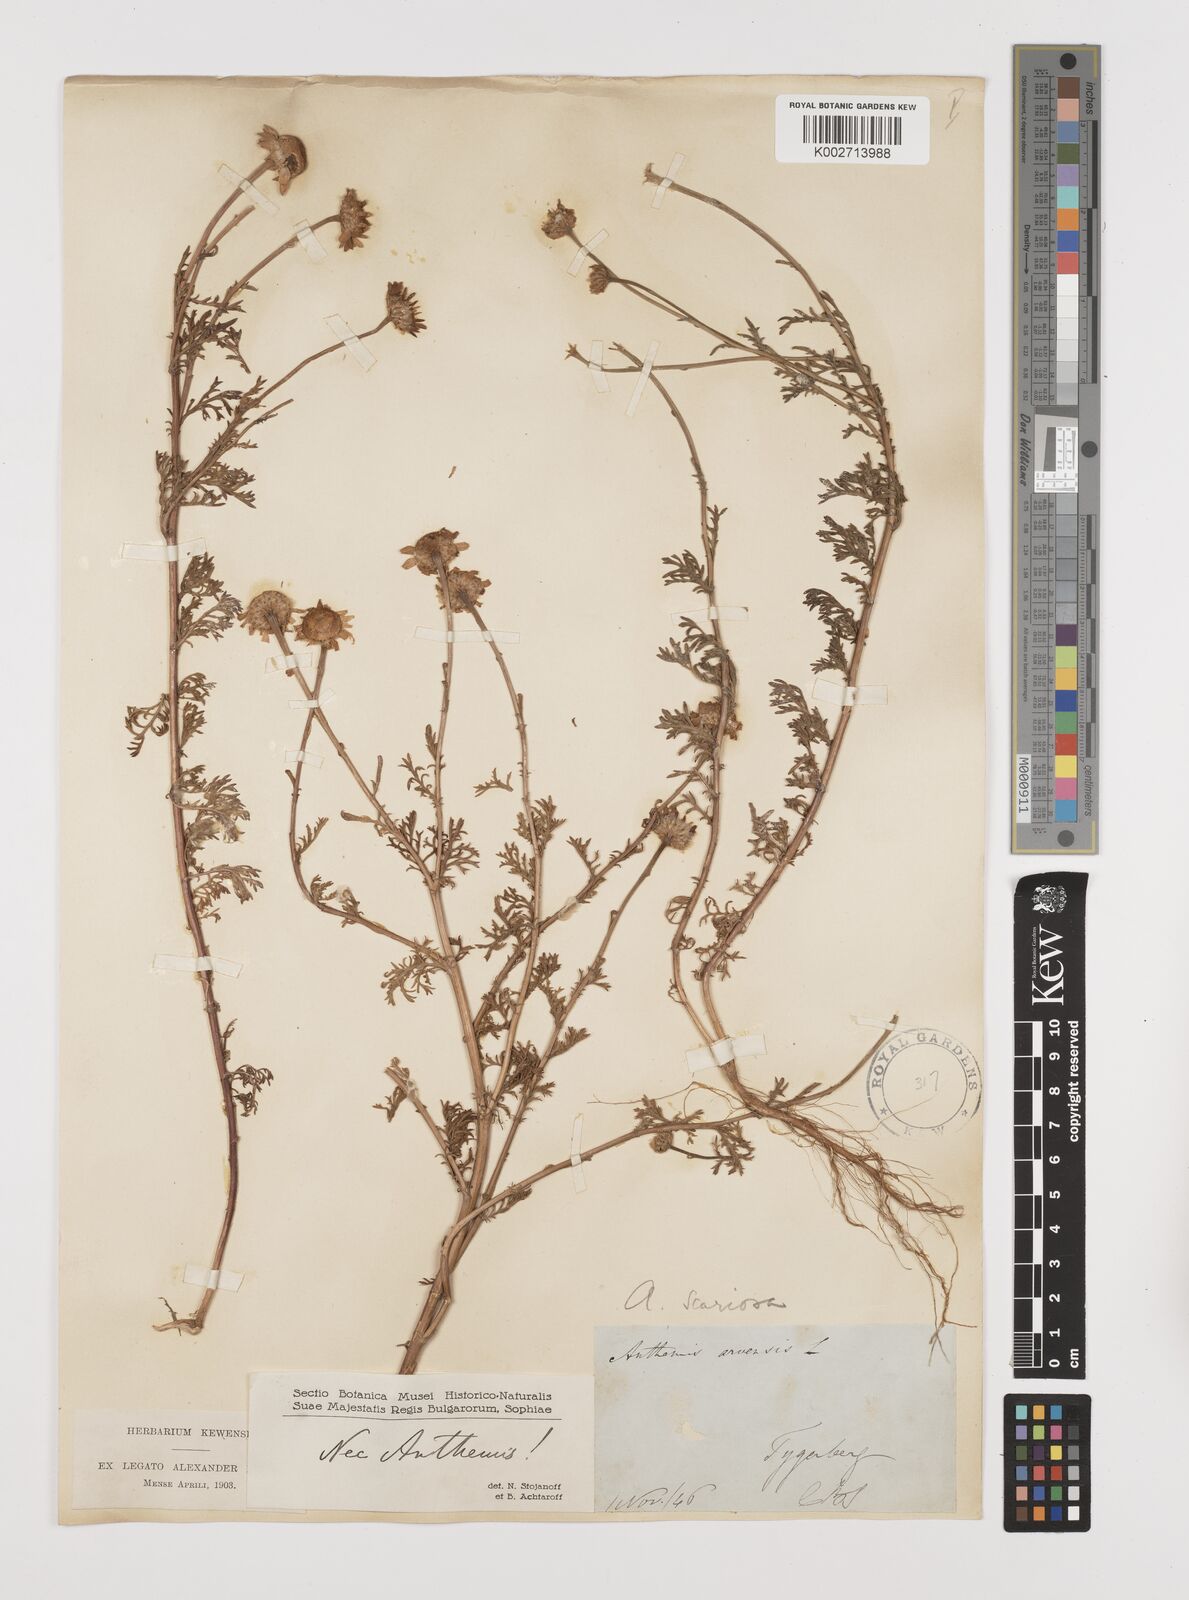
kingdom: Plantae
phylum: Tracheophyta
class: Magnoliopsida
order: Asterales
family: Asteraceae
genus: Anthemis
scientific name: Anthemis
